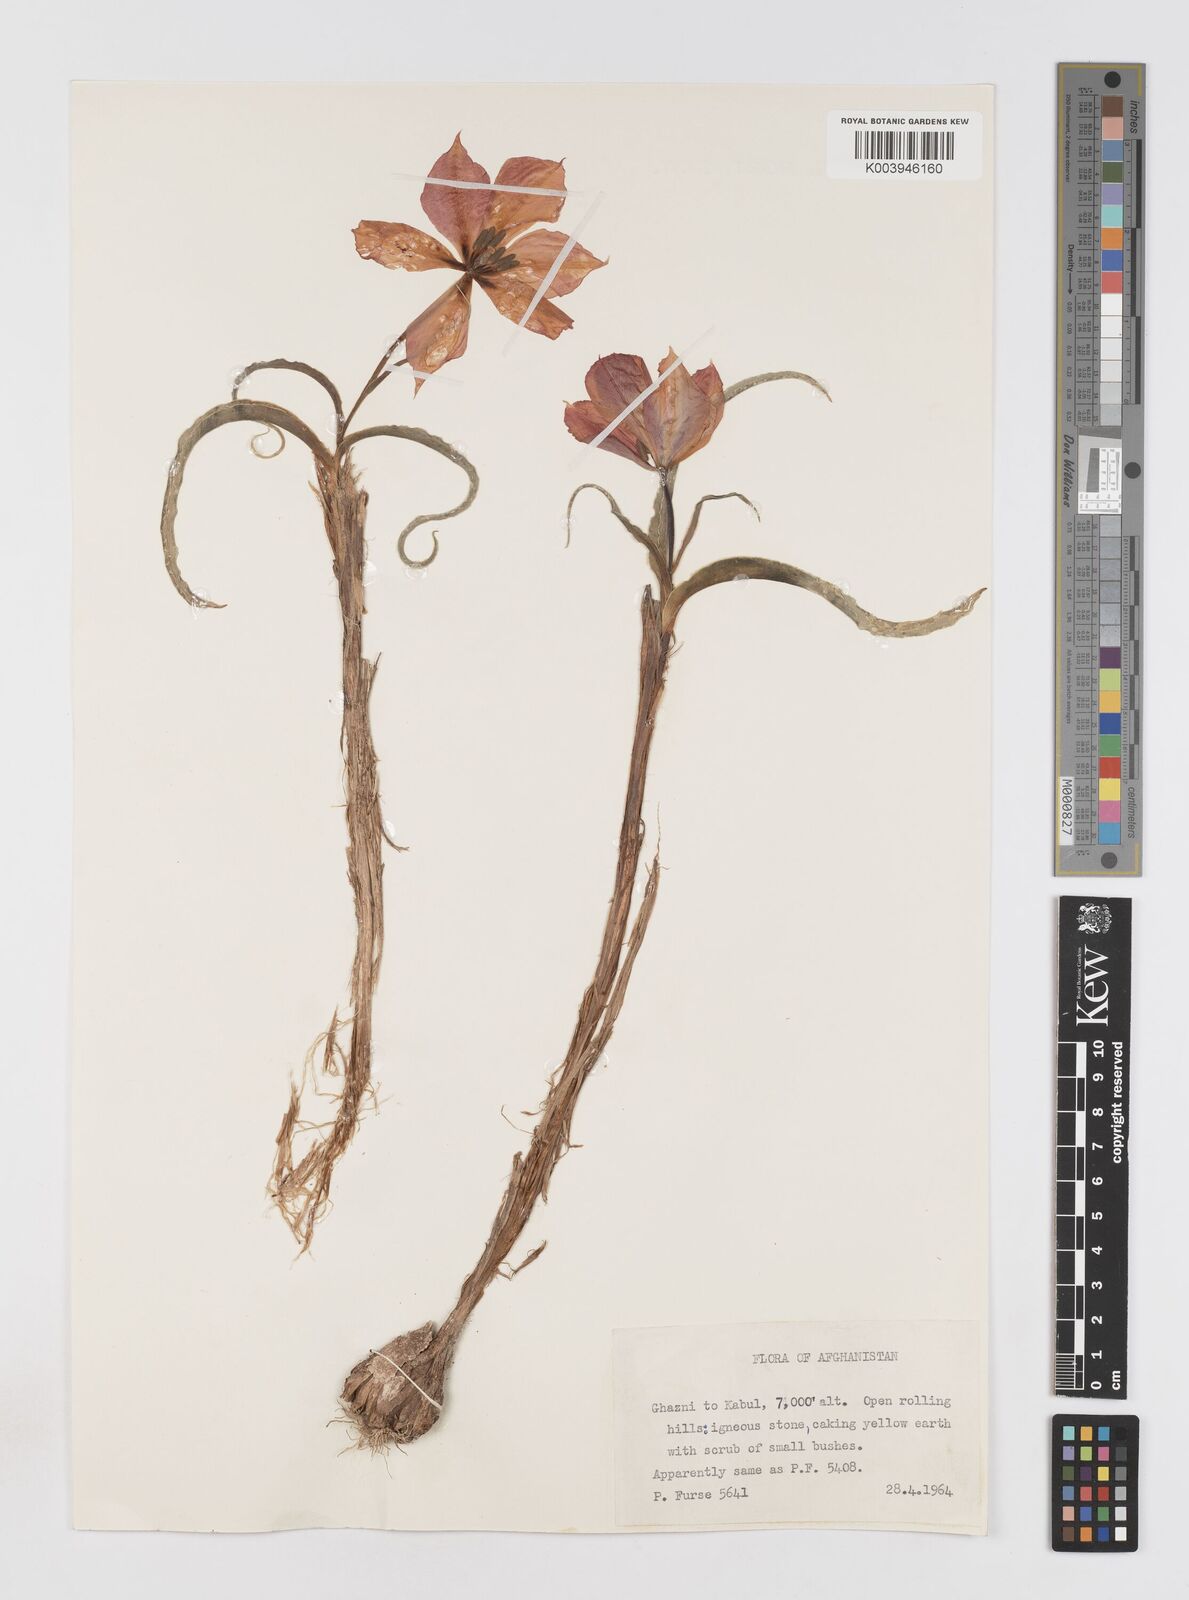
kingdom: Plantae
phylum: Tracheophyta
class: Liliopsida
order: Liliales
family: Liliaceae
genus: Tulipa
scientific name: Tulipa borszczowii
